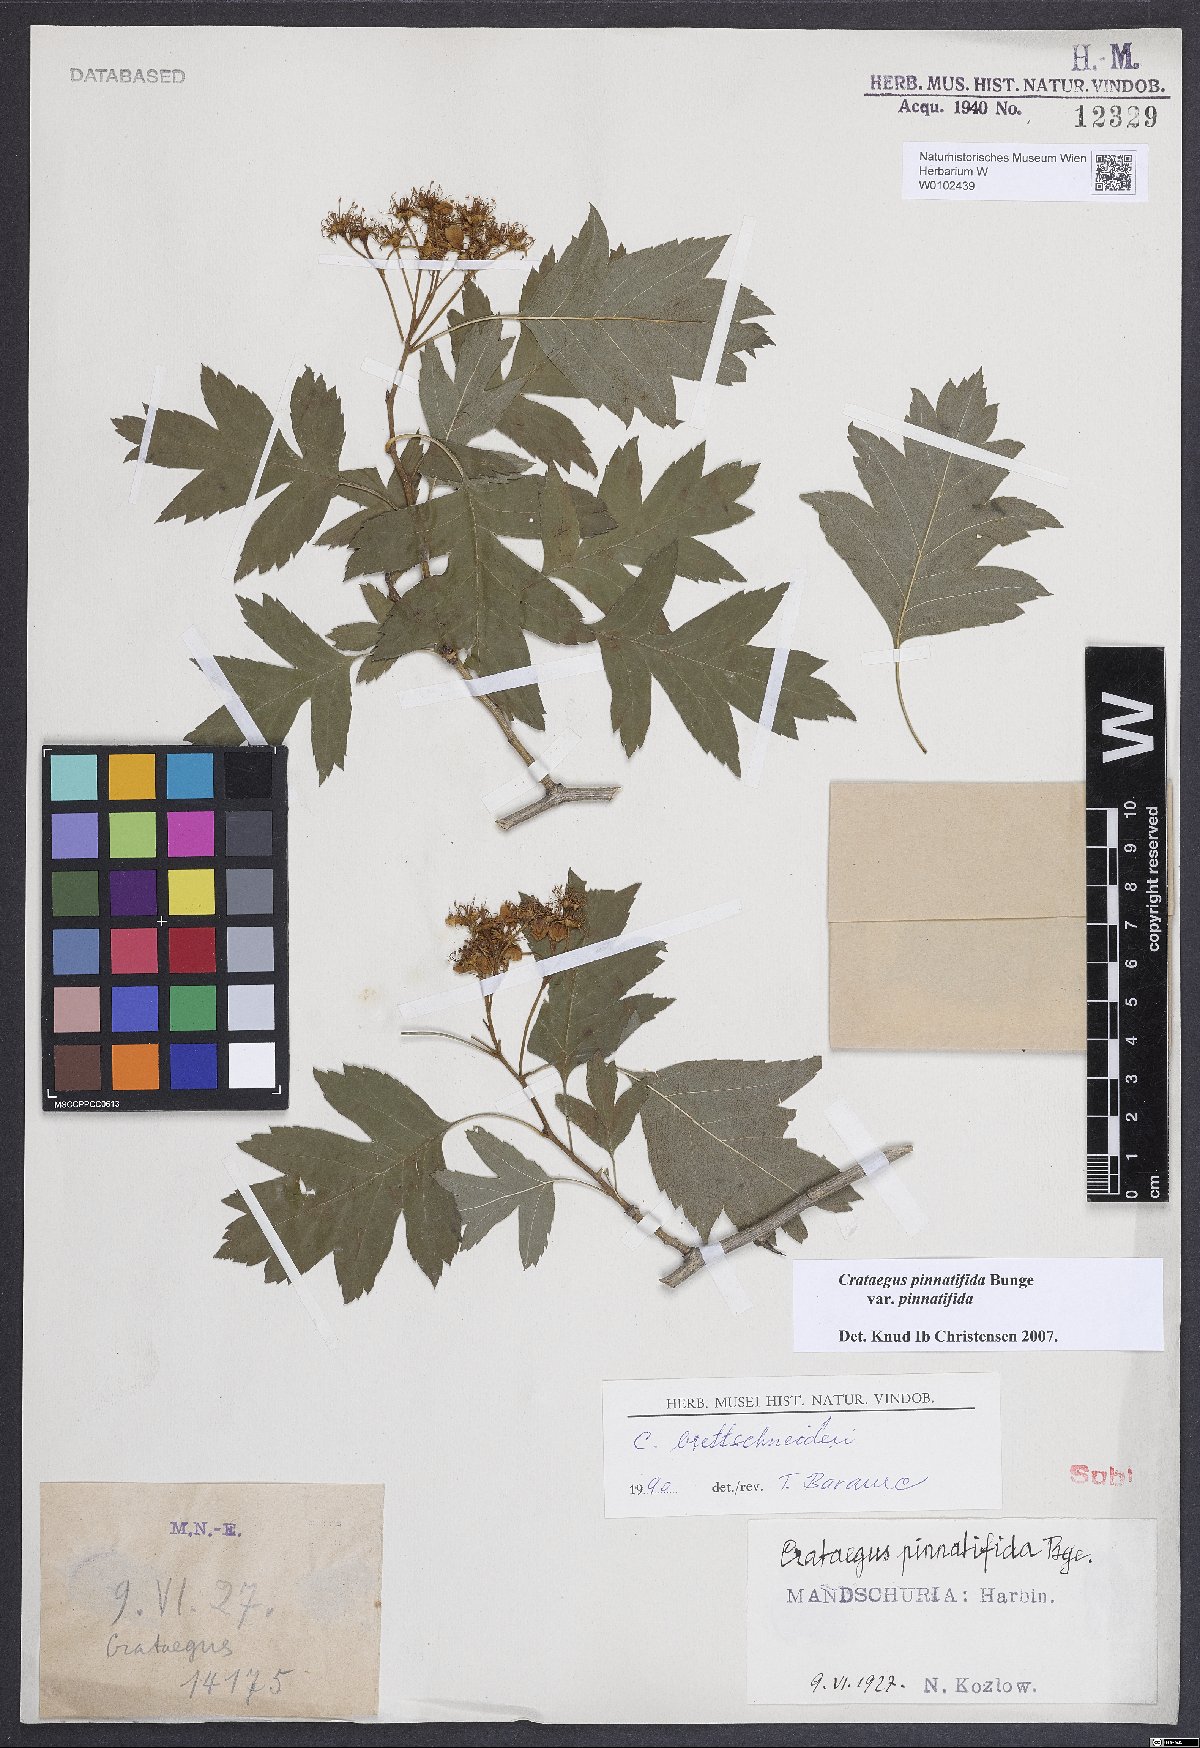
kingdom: Plantae
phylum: Tracheophyta
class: Magnoliopsida
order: Rosales
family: Rosaceae
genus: Crataegus
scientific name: Crataegus pinnatifida
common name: Chinese haw
